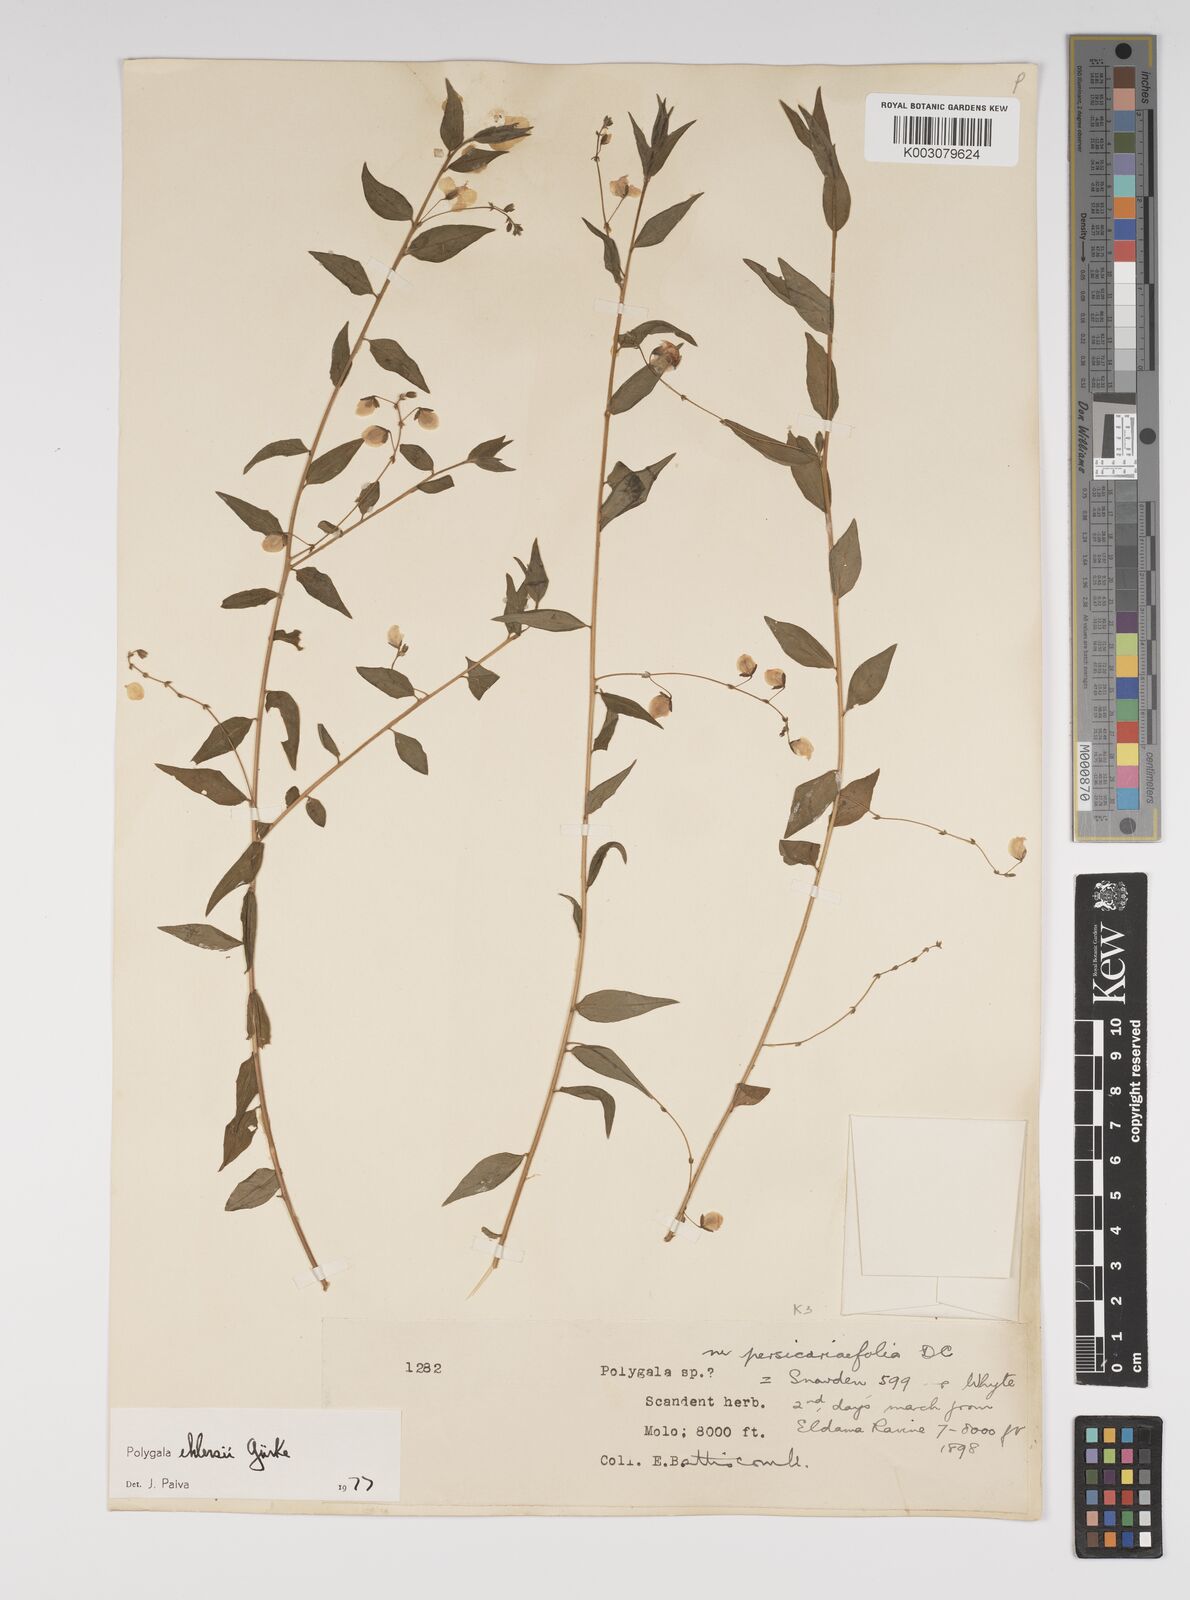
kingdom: Plantae
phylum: Tracheophyta
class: Magnoliopsida
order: Fabales
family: Polygalaceae
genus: Polygala
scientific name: Polygala ehlersii
